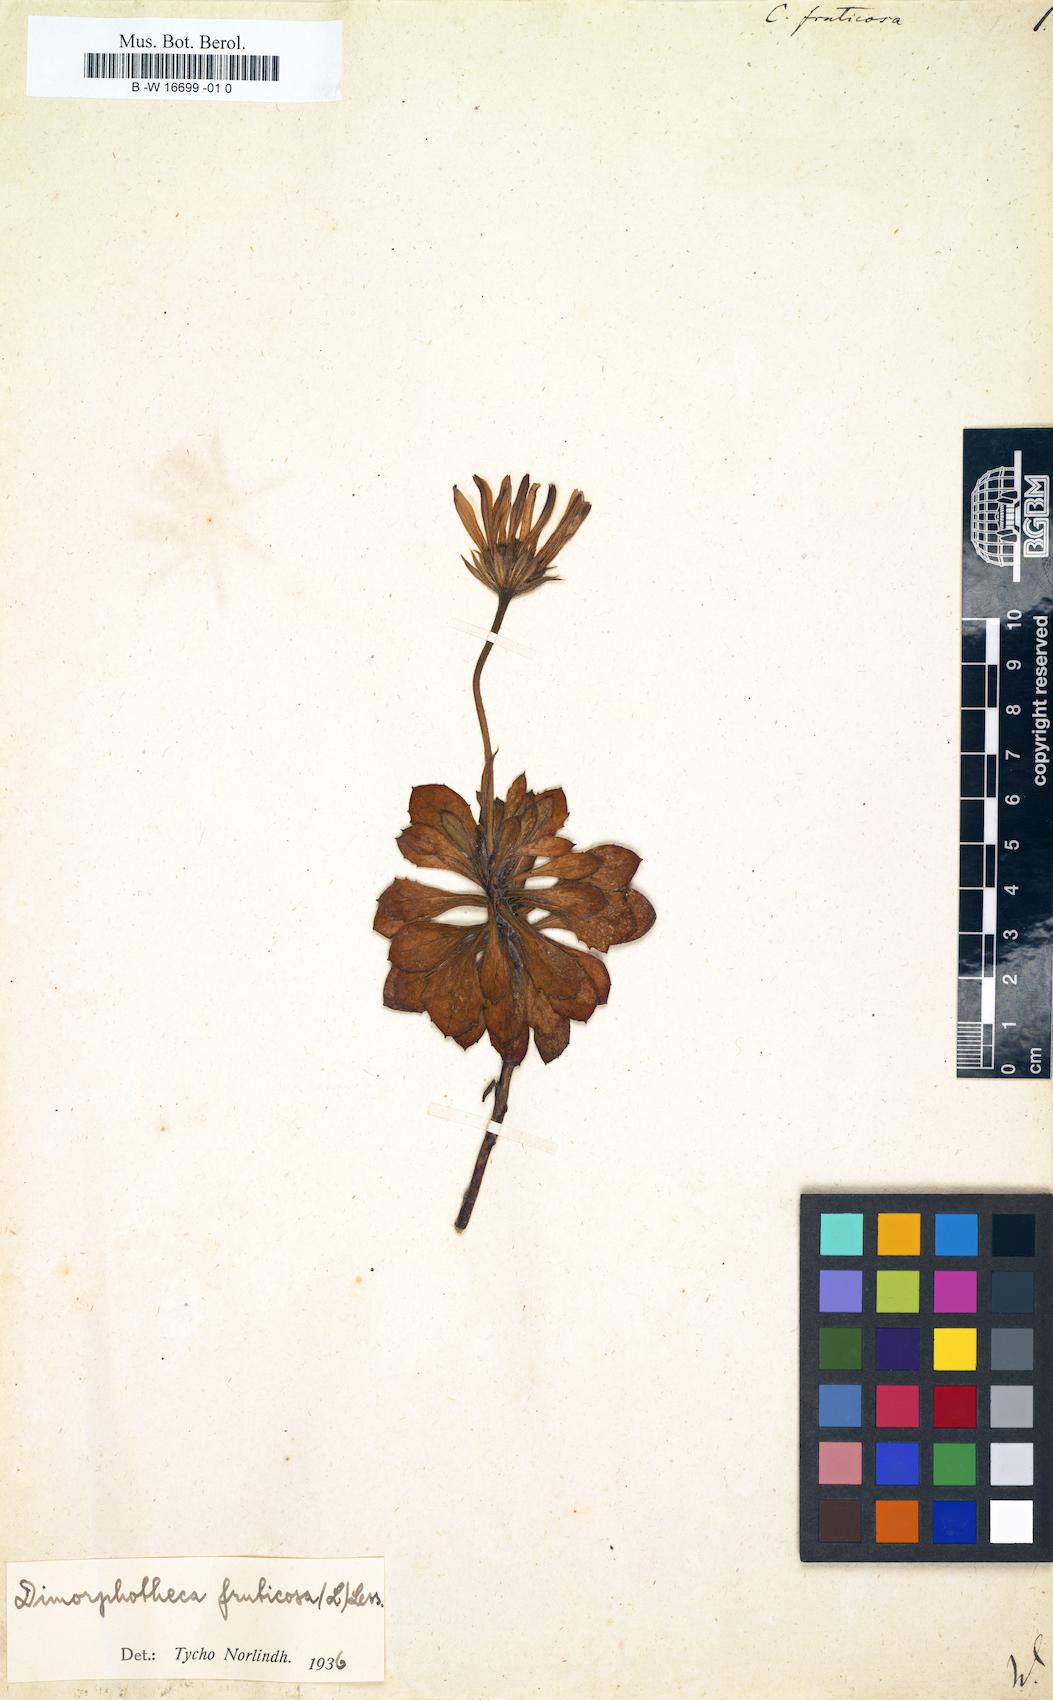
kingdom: Plantae
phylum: Tracheophyta
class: Magnoliopsida
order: Asterales
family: Asteraceae
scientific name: Asteraceae
